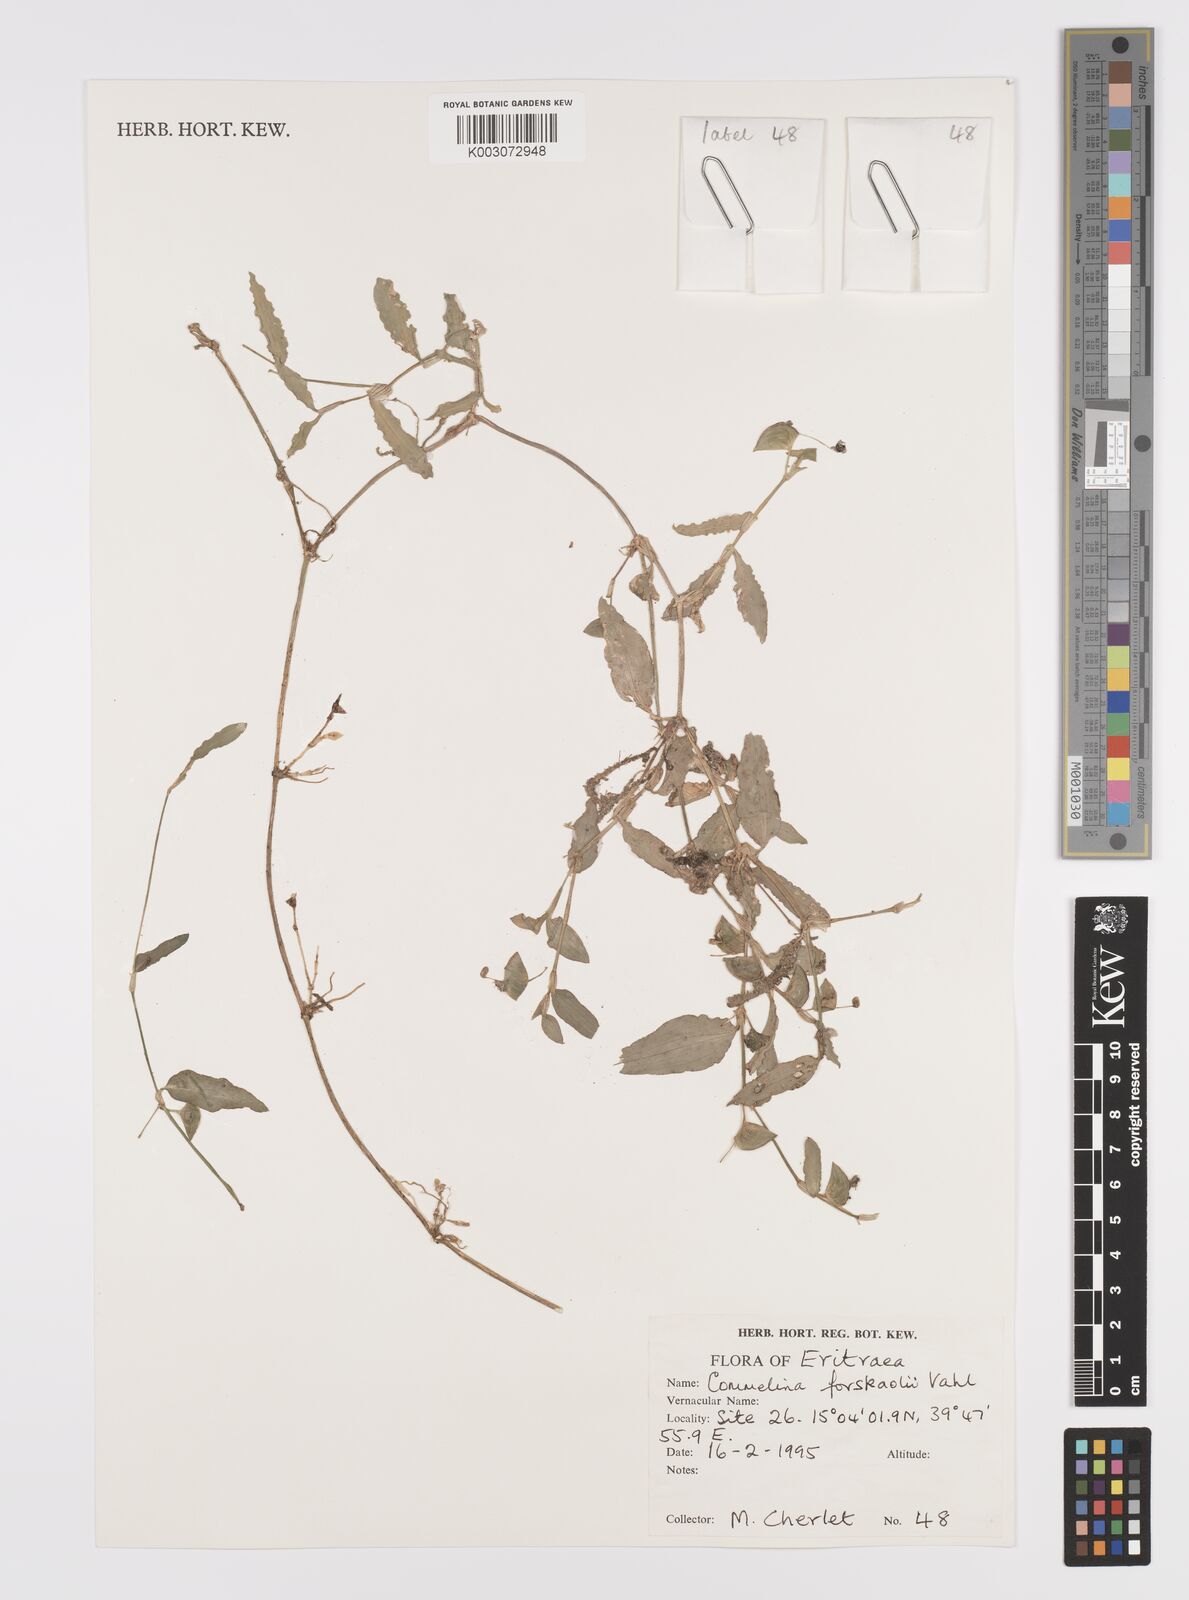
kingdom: Plantae
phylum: Tracheophyta
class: Liliopsida
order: Commelinales
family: Commelinaceae
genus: Commelina
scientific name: Commelina forskaolii
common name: Rat's ear
